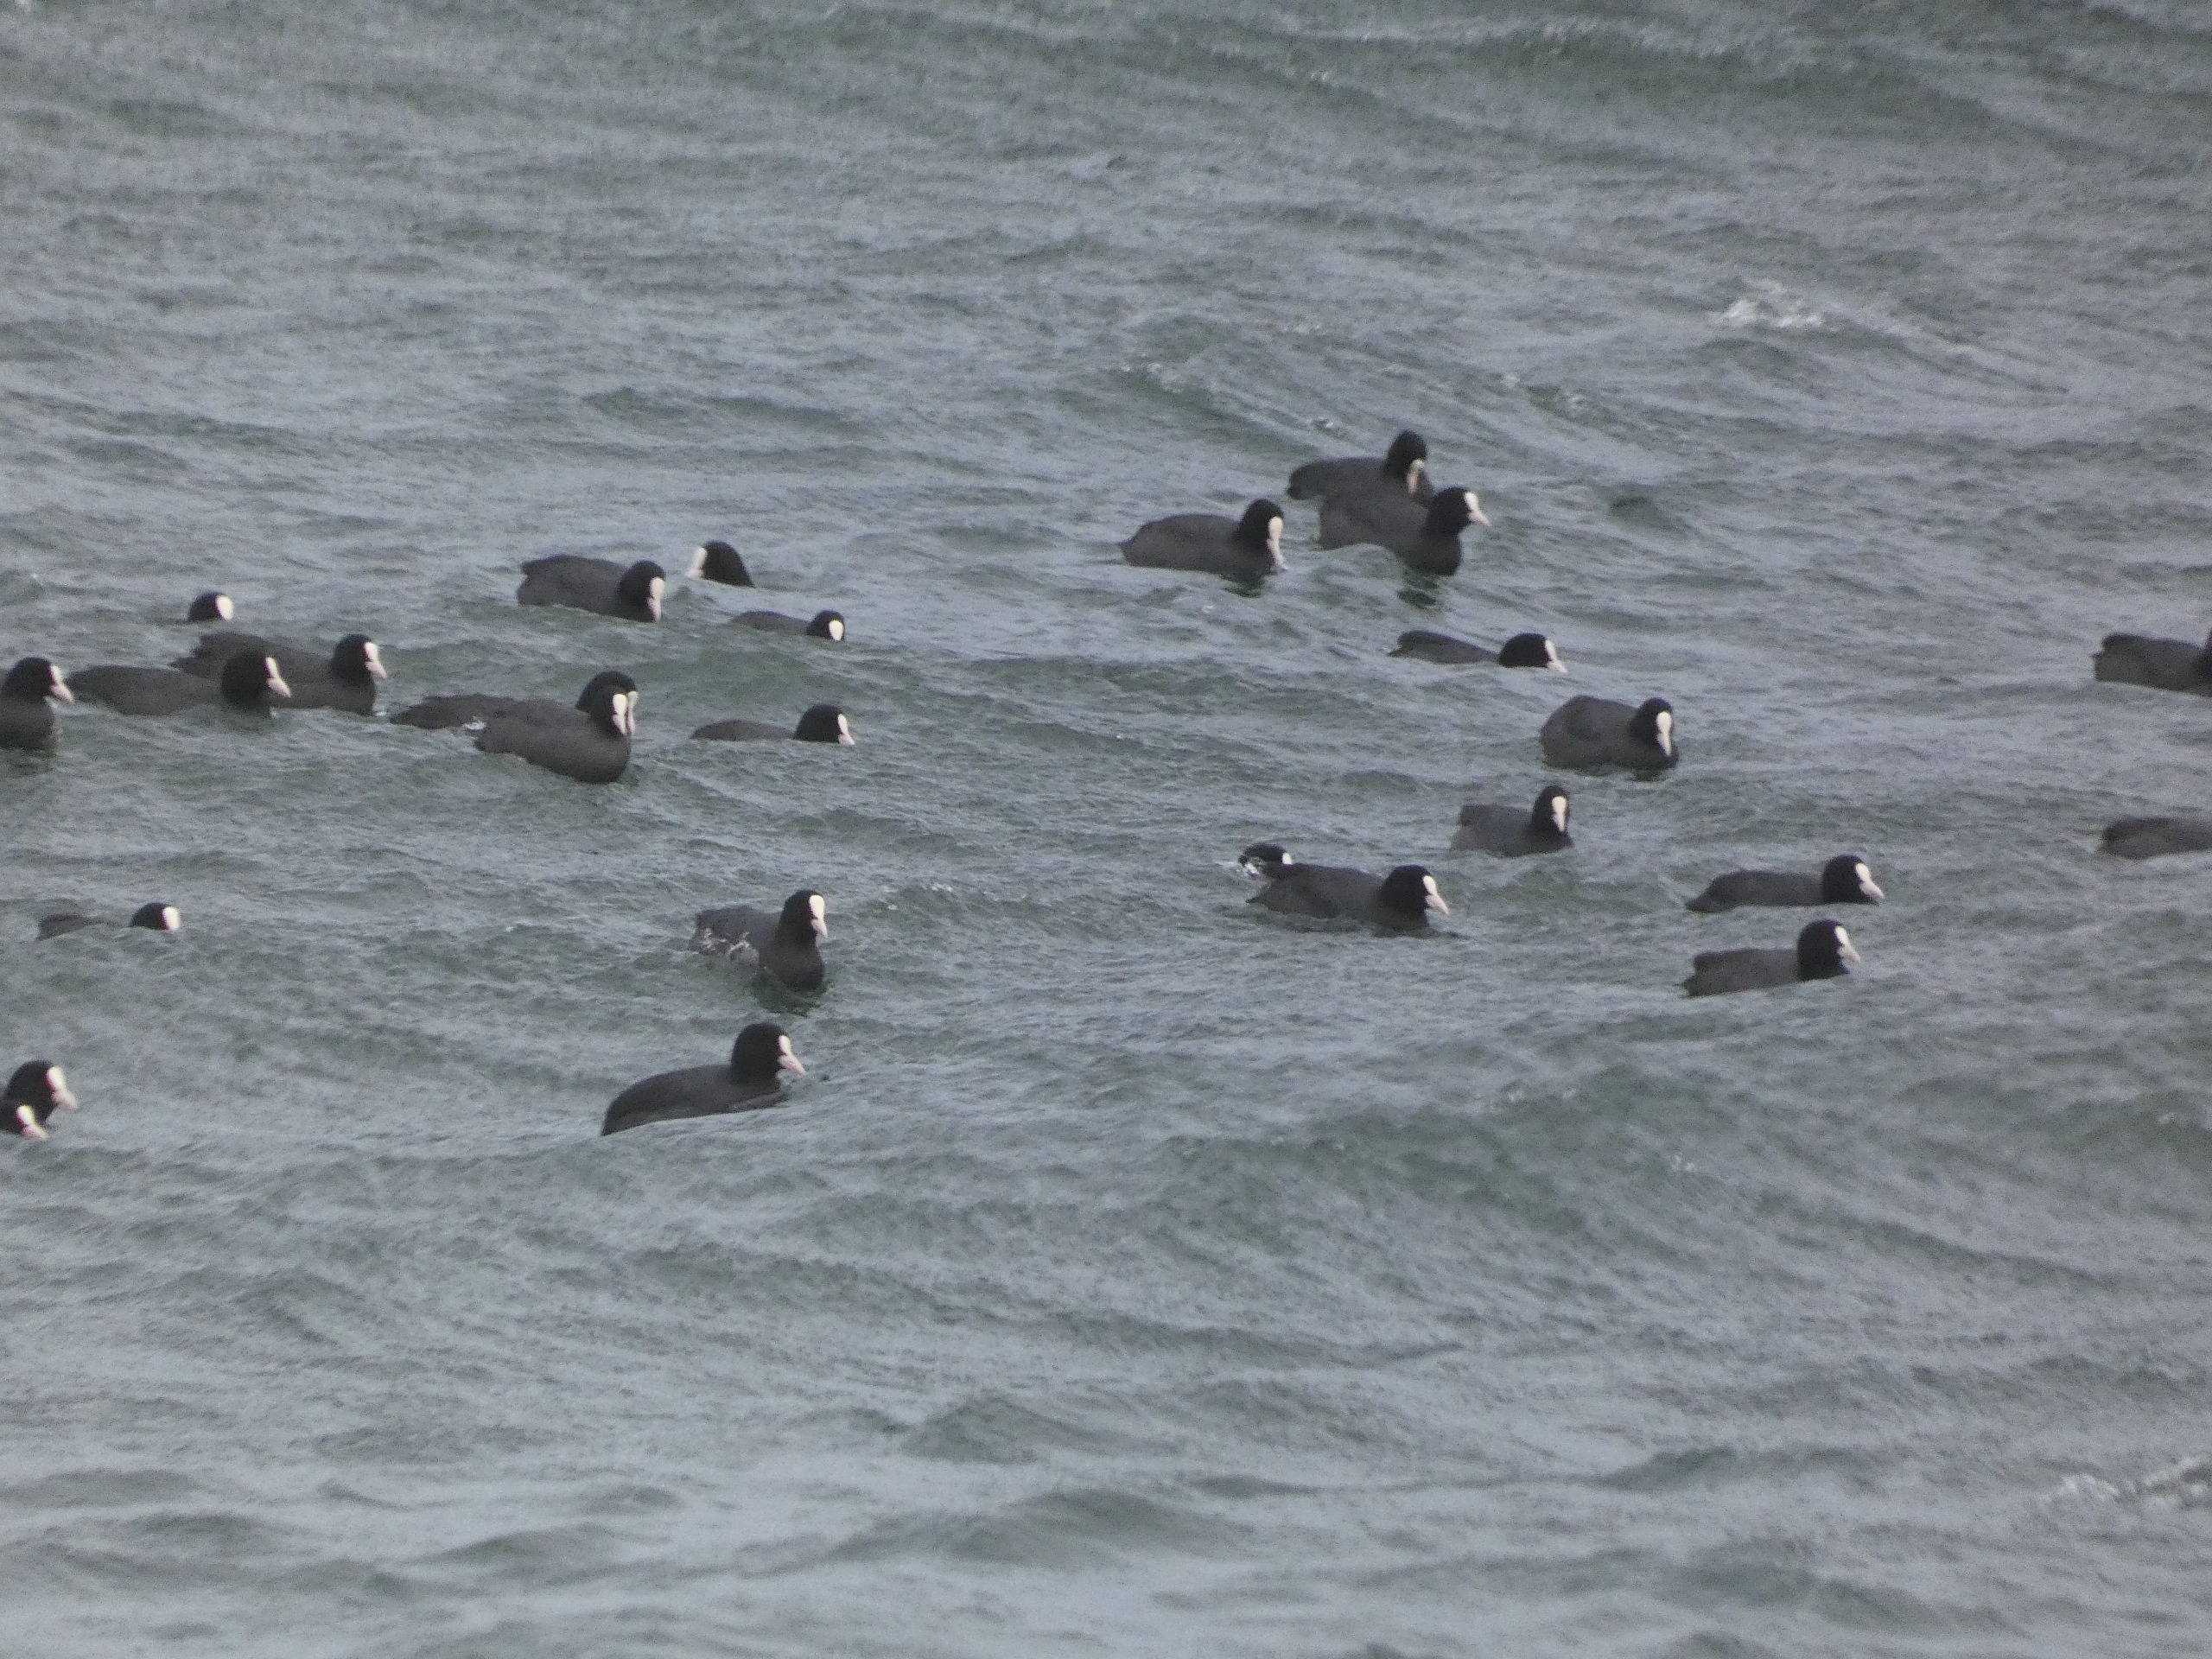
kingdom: Animalia
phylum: Chordata
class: Aves
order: Gruiformes
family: Rallidae
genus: Fulica
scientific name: Fulica atra
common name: Blishøne
